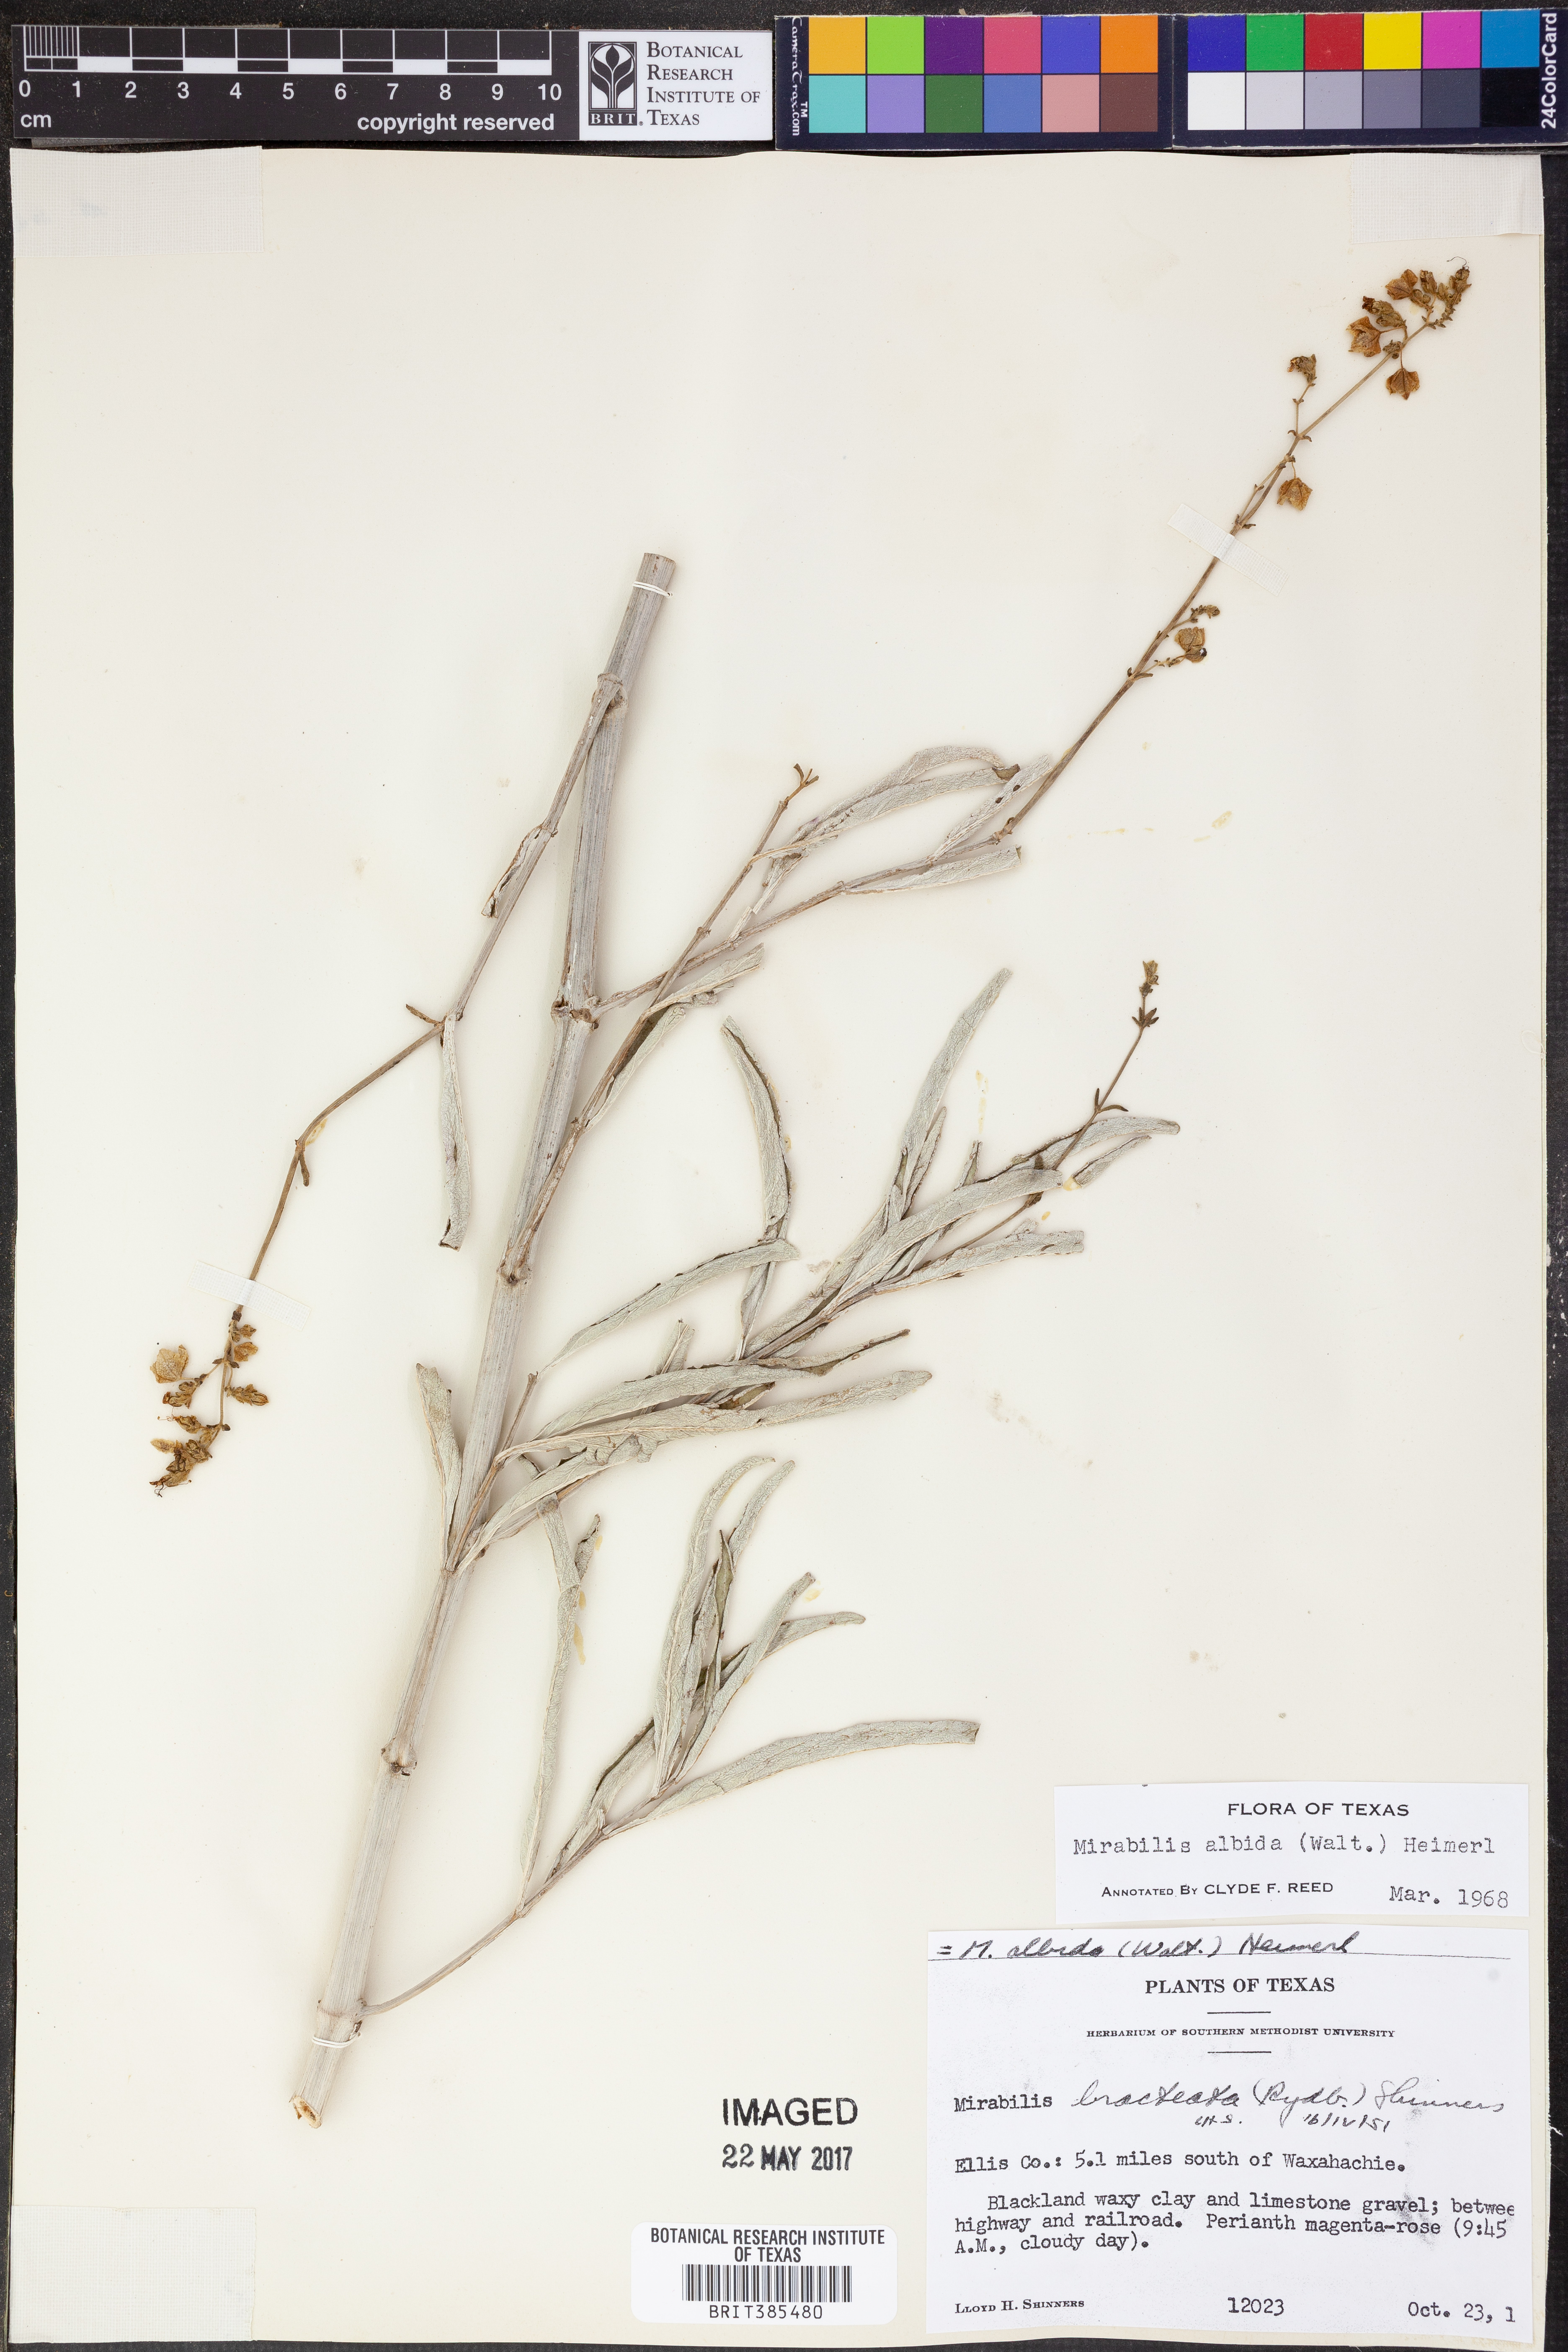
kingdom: Plantae
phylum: Tracheophyta
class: Magnoliopsida
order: Caryophyllales
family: Nyctaginaceae
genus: Mirabilis
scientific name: Mirabilis albida
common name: Hairy four-o'clock
